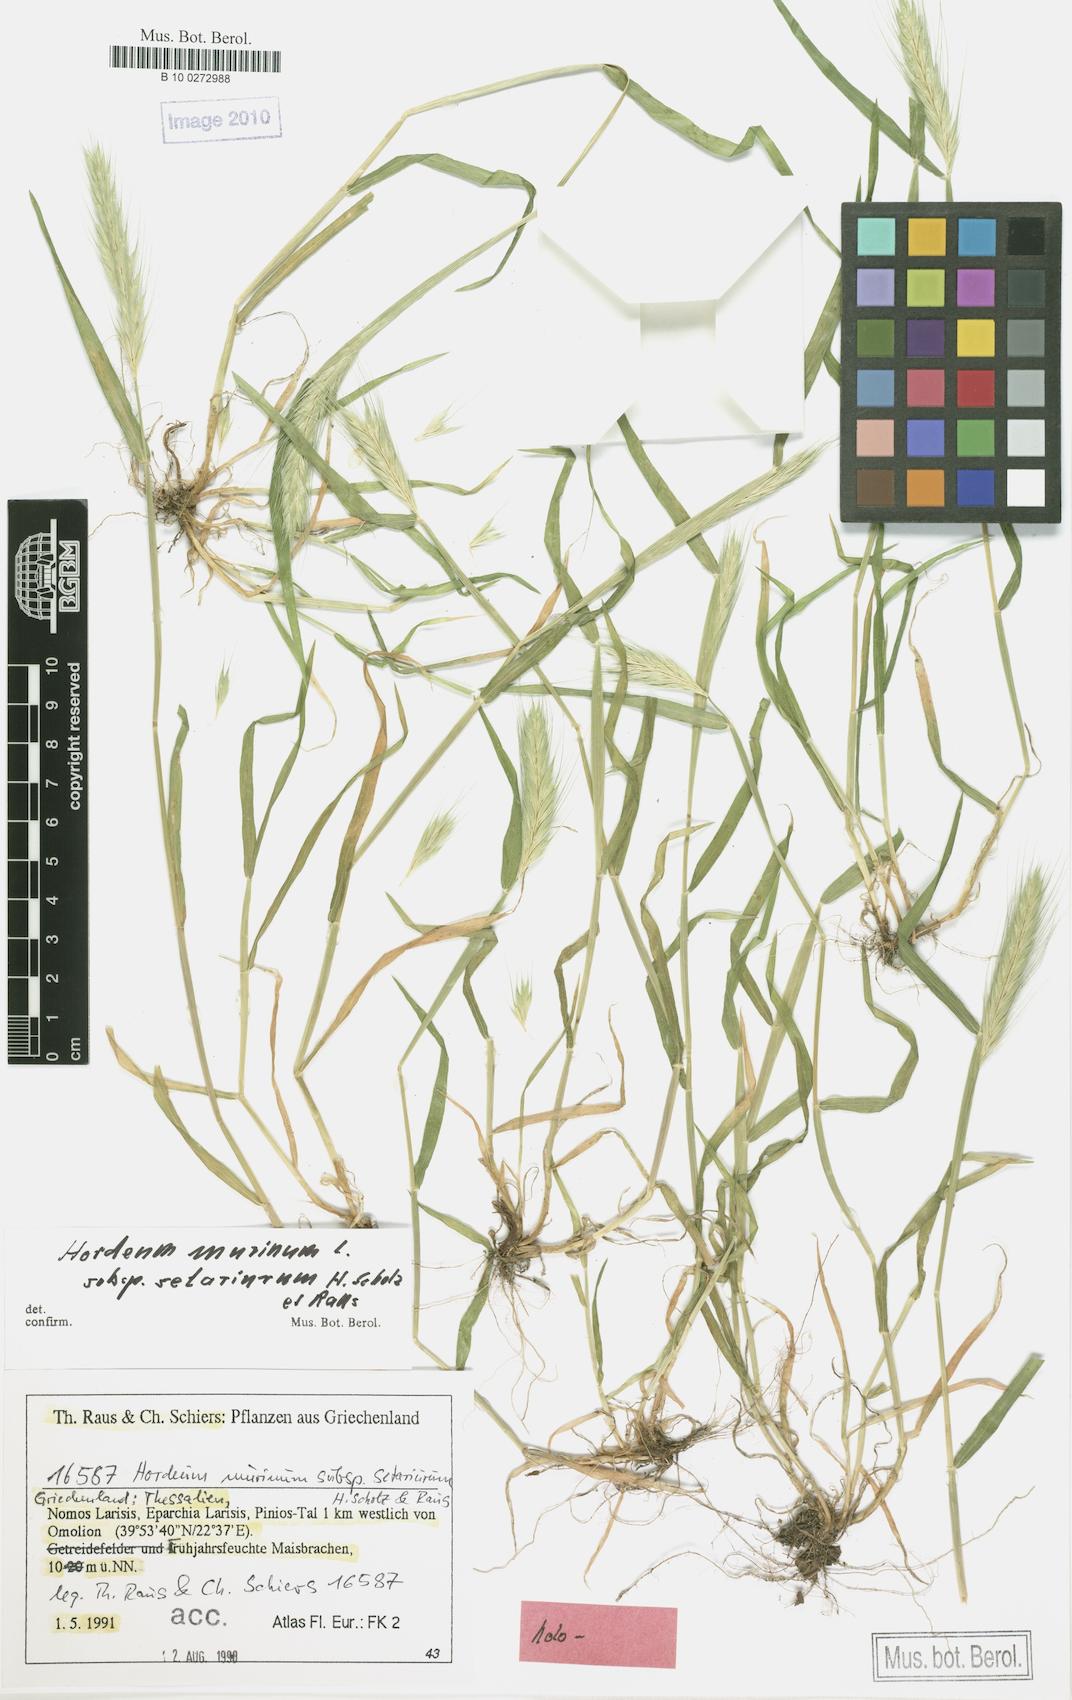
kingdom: Plantae
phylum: Tracheophyta
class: Liliopsida
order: Poales
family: Poaceae
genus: Hordeum
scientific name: Hordeum murinum
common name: Wall barley
